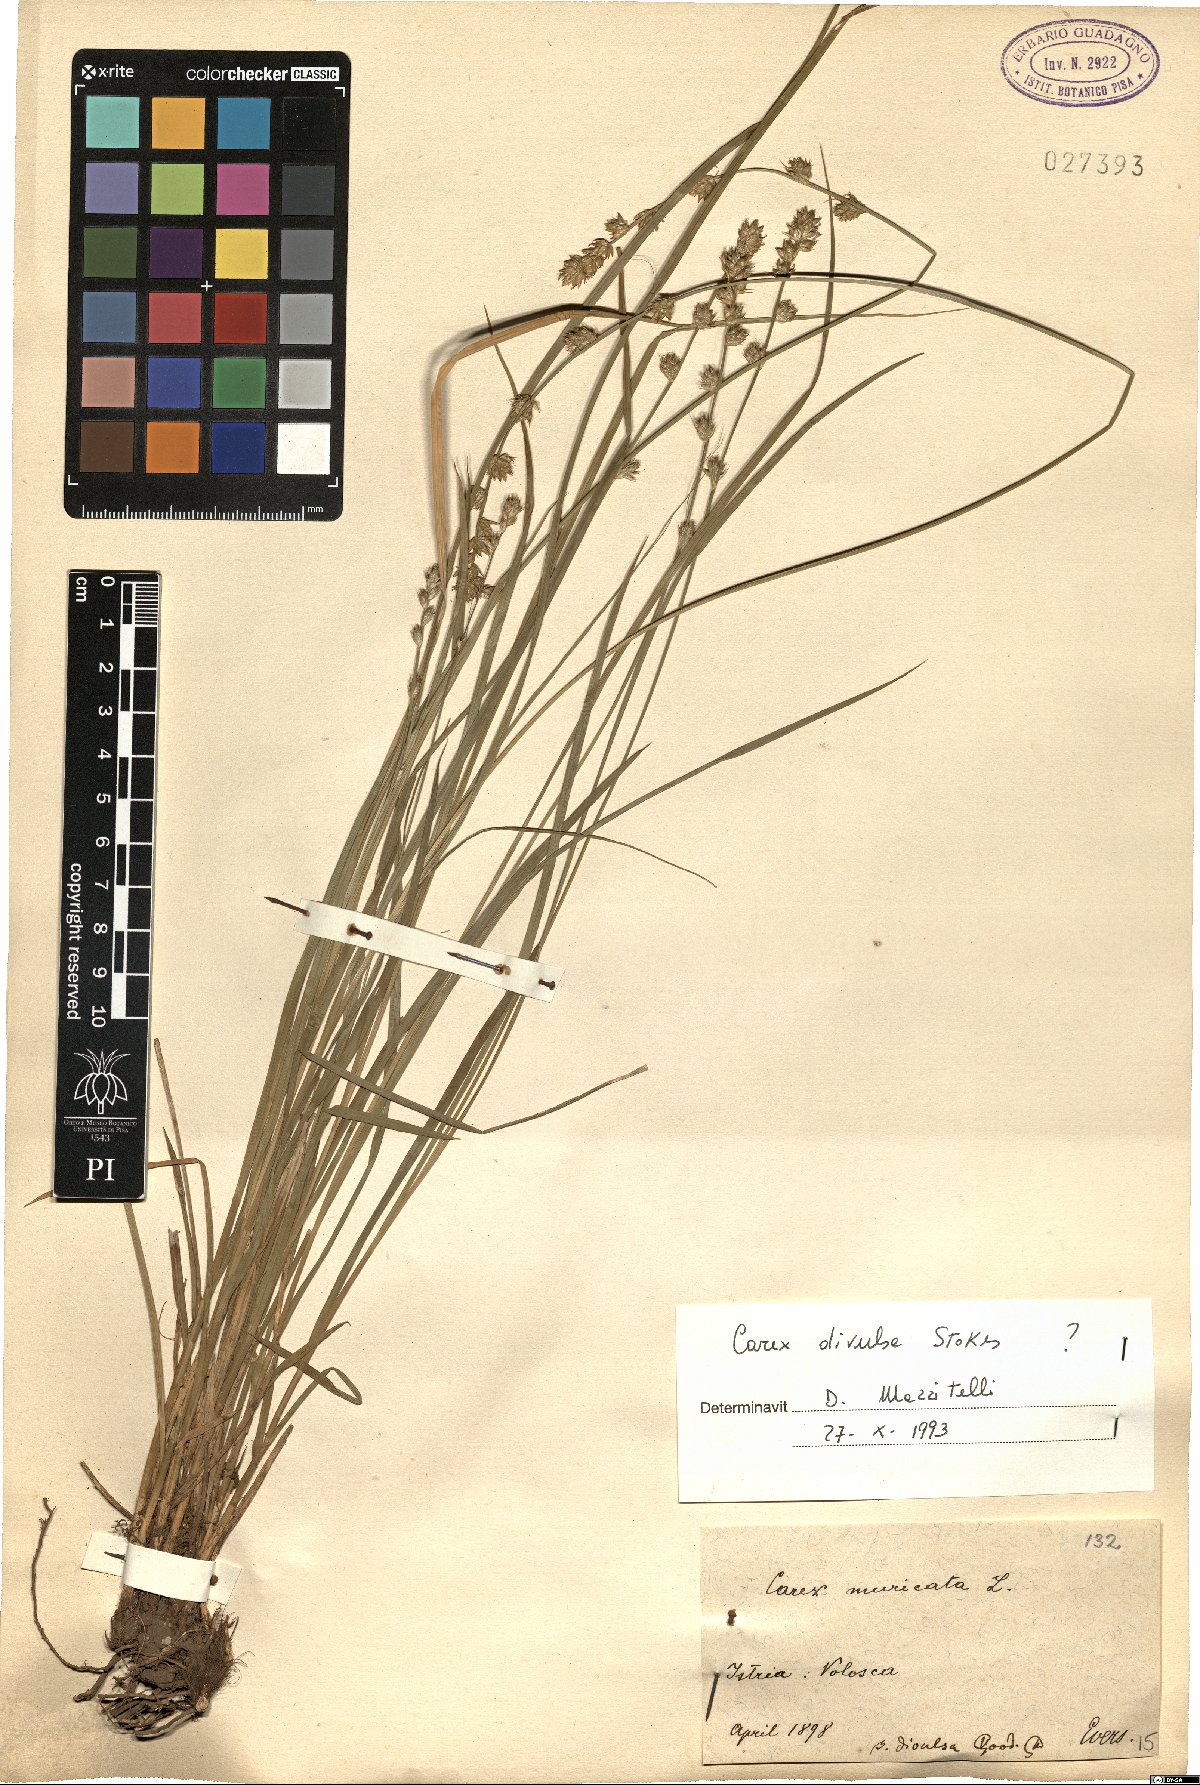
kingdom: Plantae
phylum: Tracheophyta
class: Liliopsida
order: Poales
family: Cyperaceae
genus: Carex
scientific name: Carex divulsa
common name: Grassland sedge
